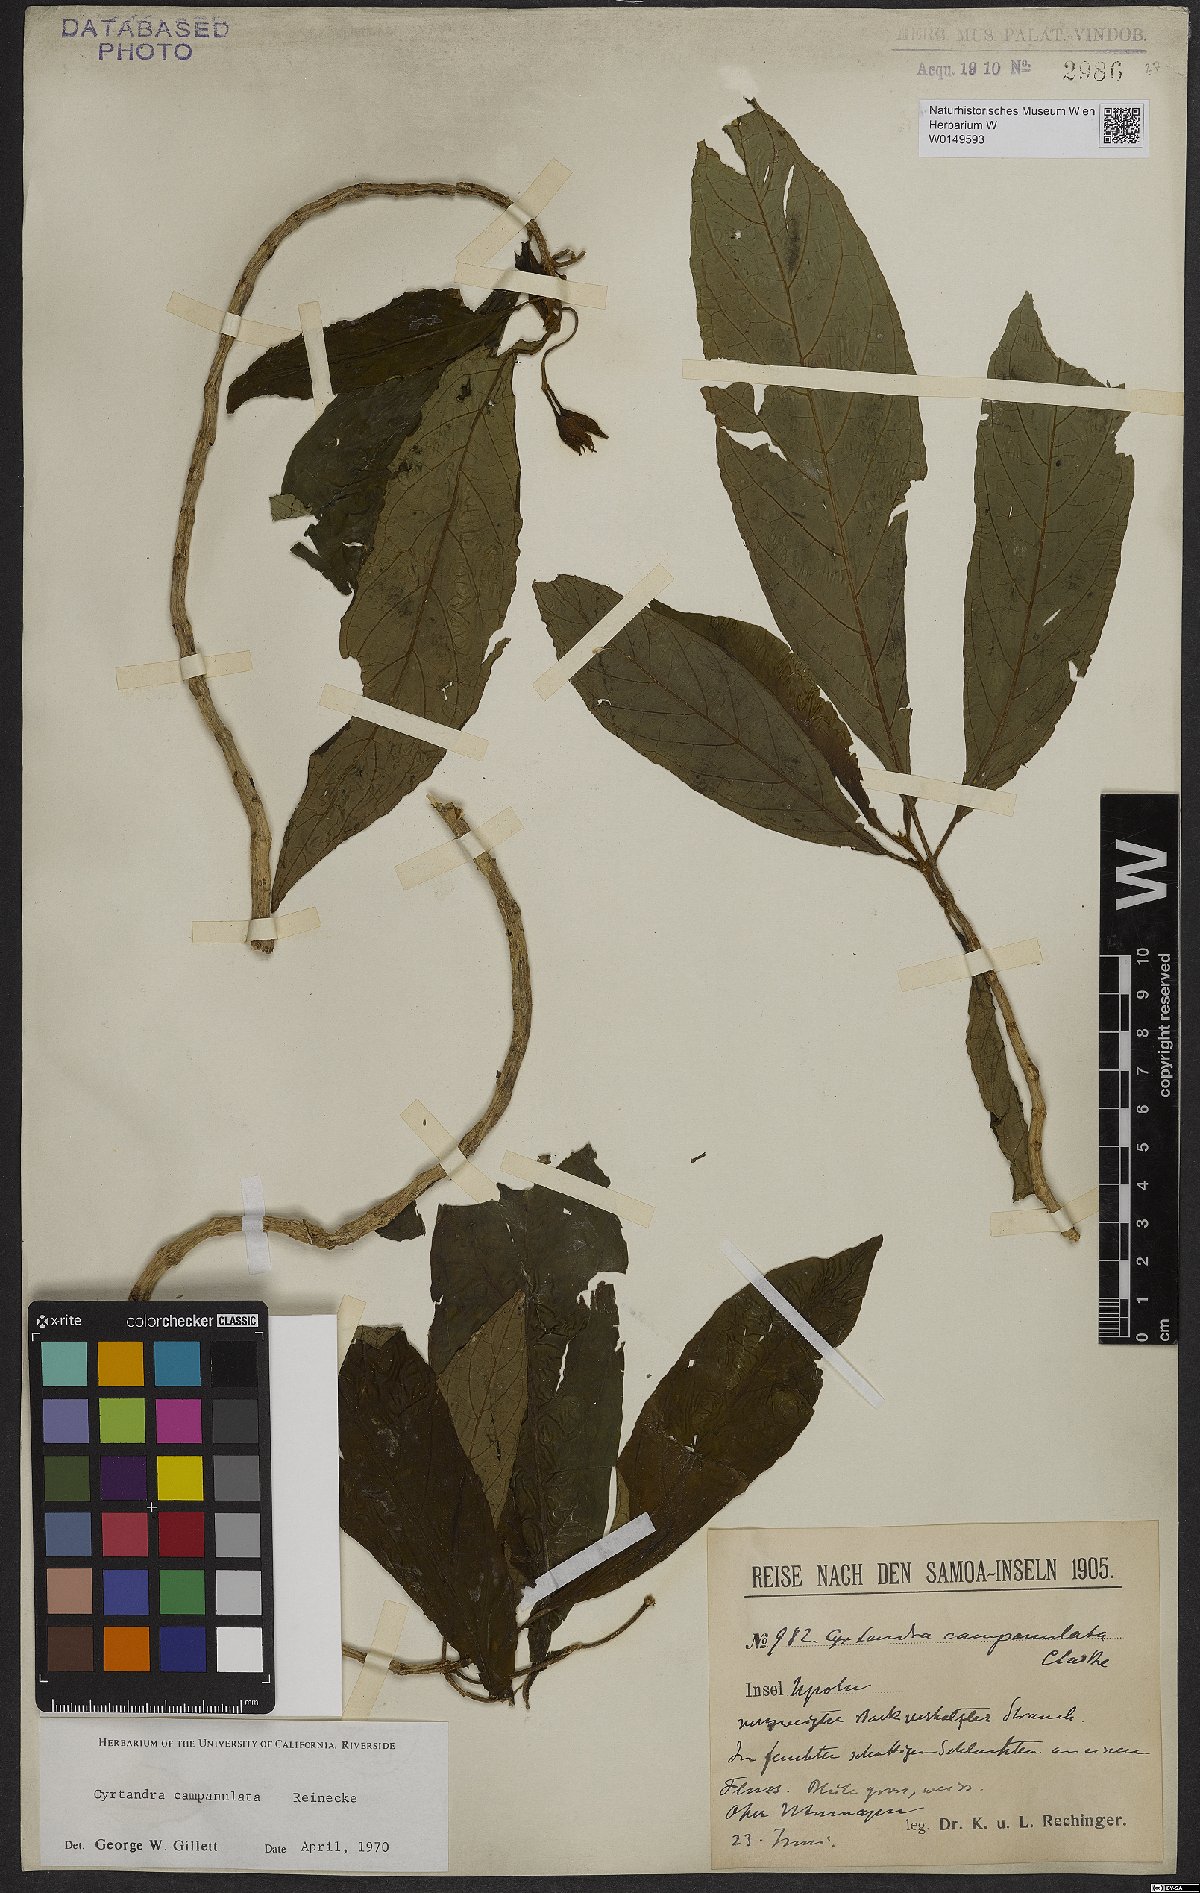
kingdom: Plantae
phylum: Tracheophyta
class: Magnoliopsida
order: Lamiales
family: Gesneriaceae
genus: Cyrtandra
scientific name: Cyrtandra campanulata
